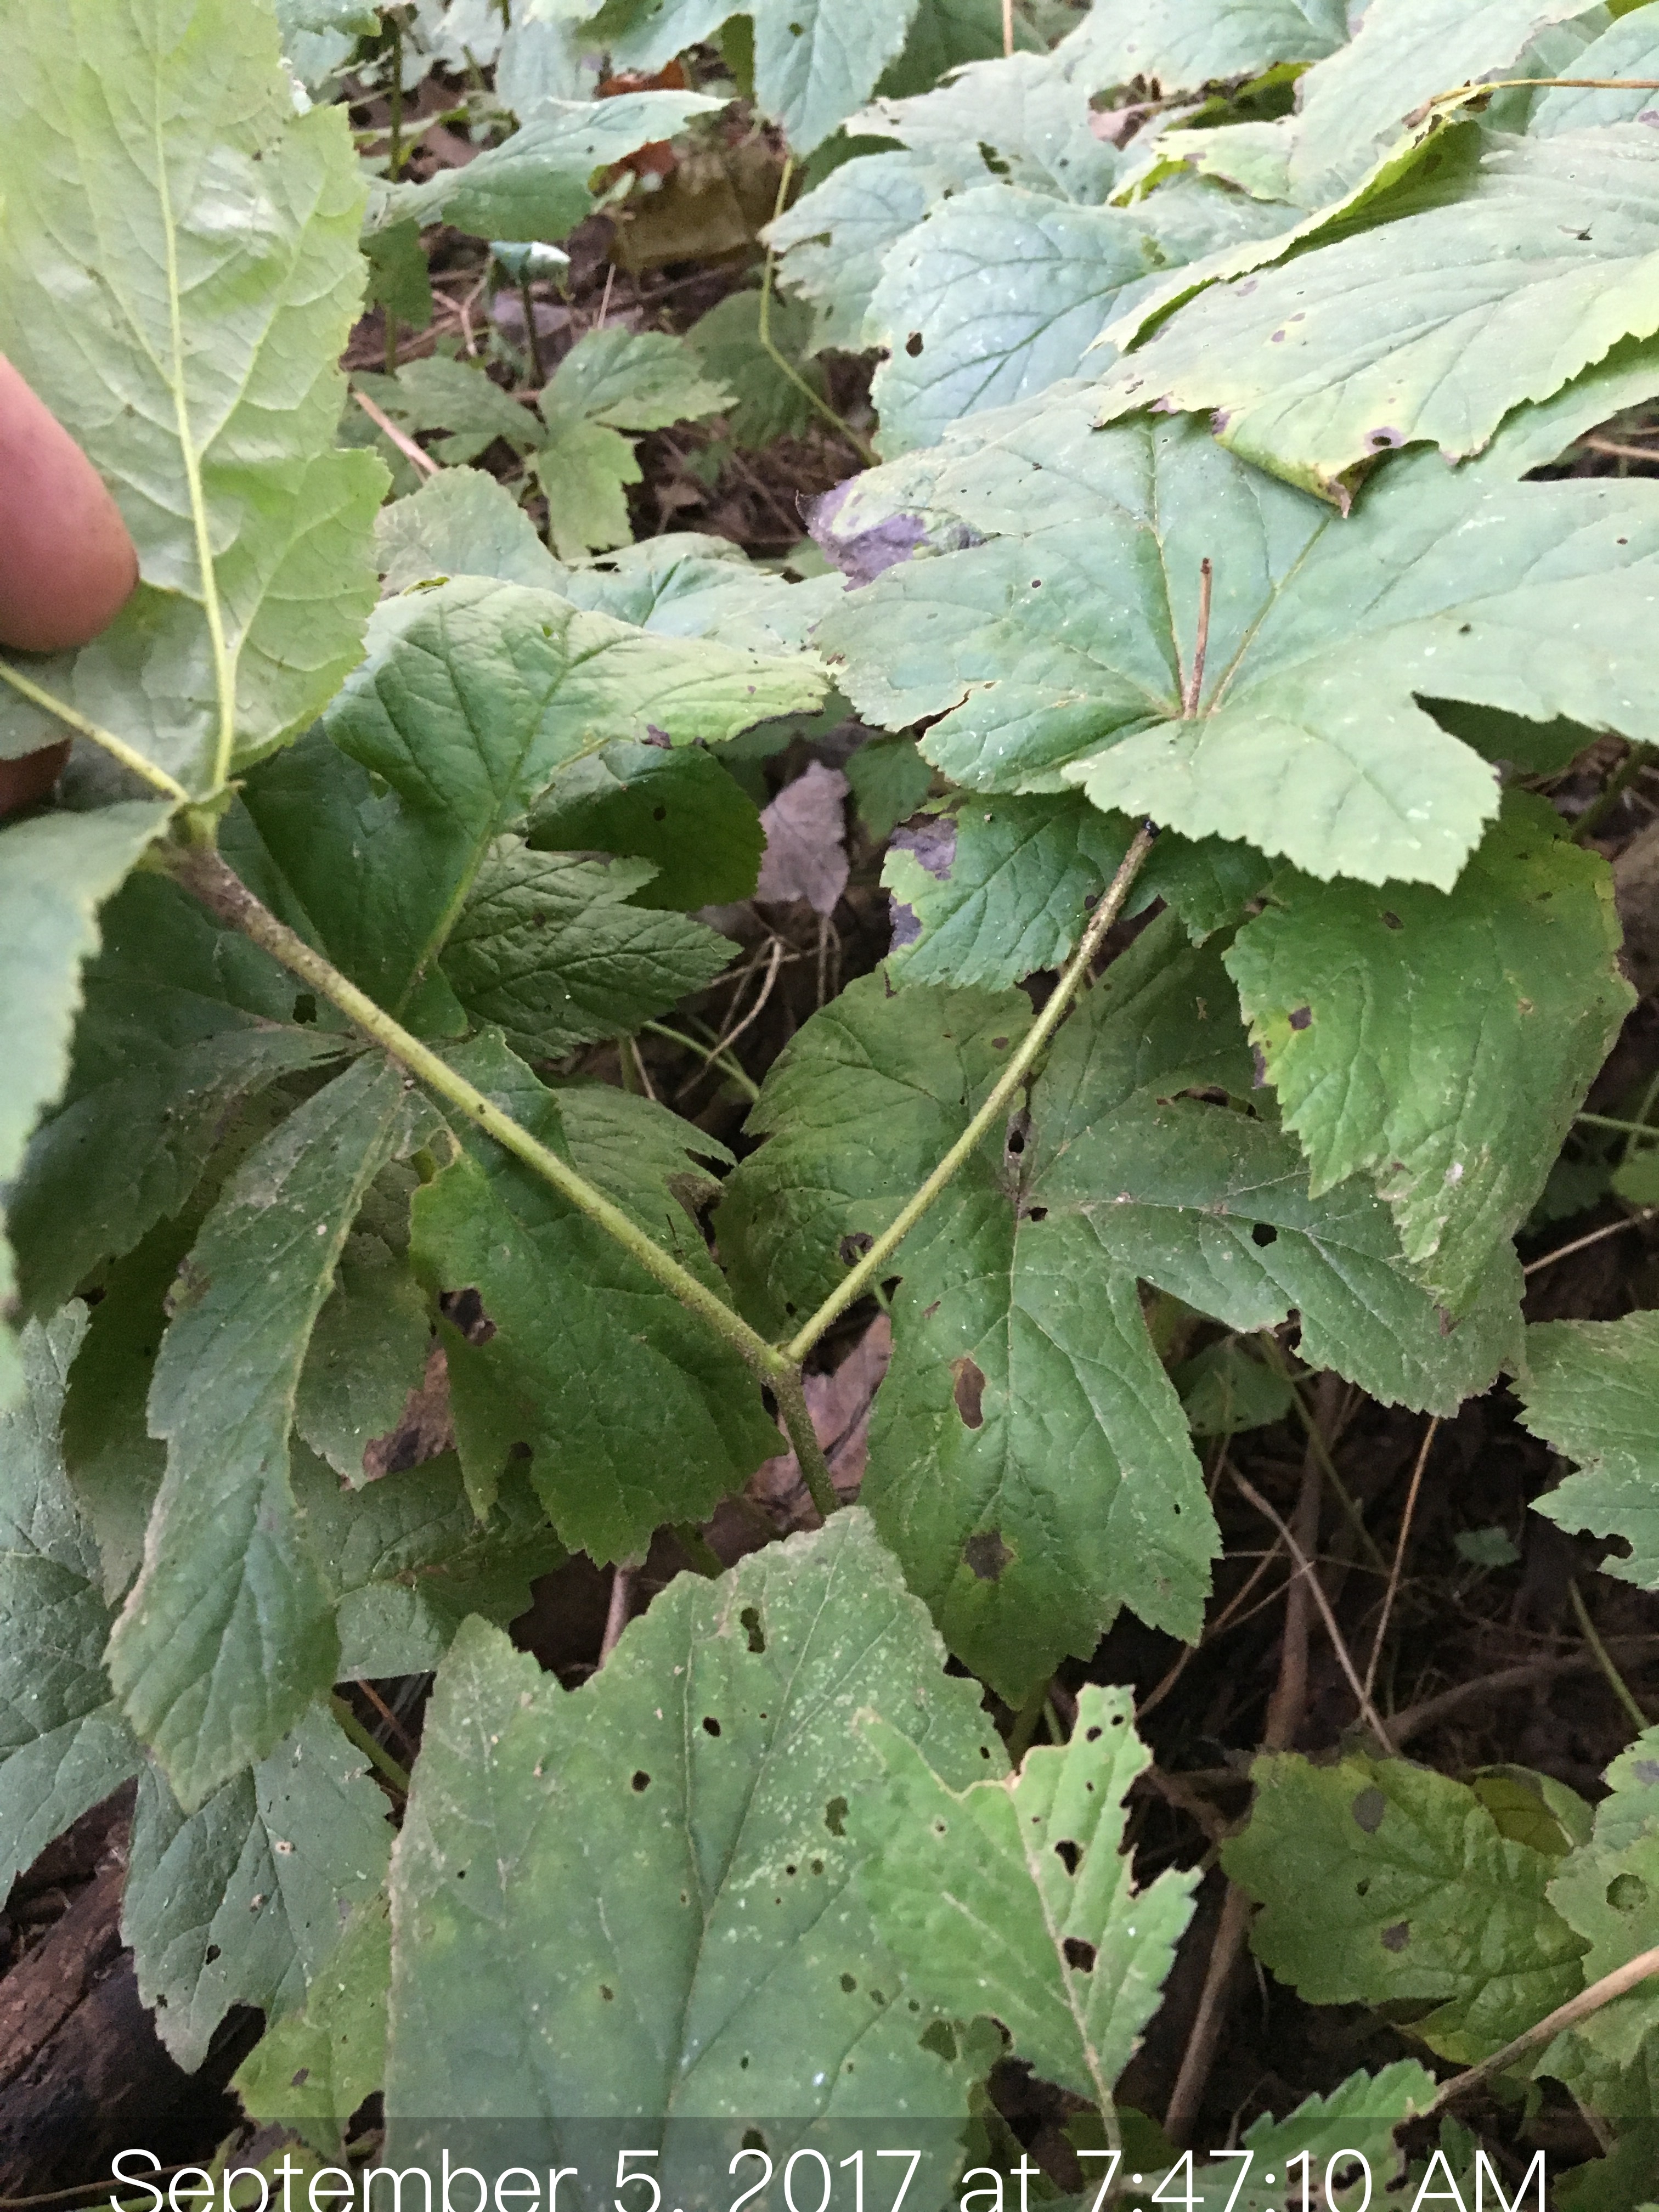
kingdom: Plantae
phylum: Tracheophyta
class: Magnoliopsida
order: Ranunculales
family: Ranunculaceae
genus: Hydrastis
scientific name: Hydrastis canadensis
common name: Goldenseal
